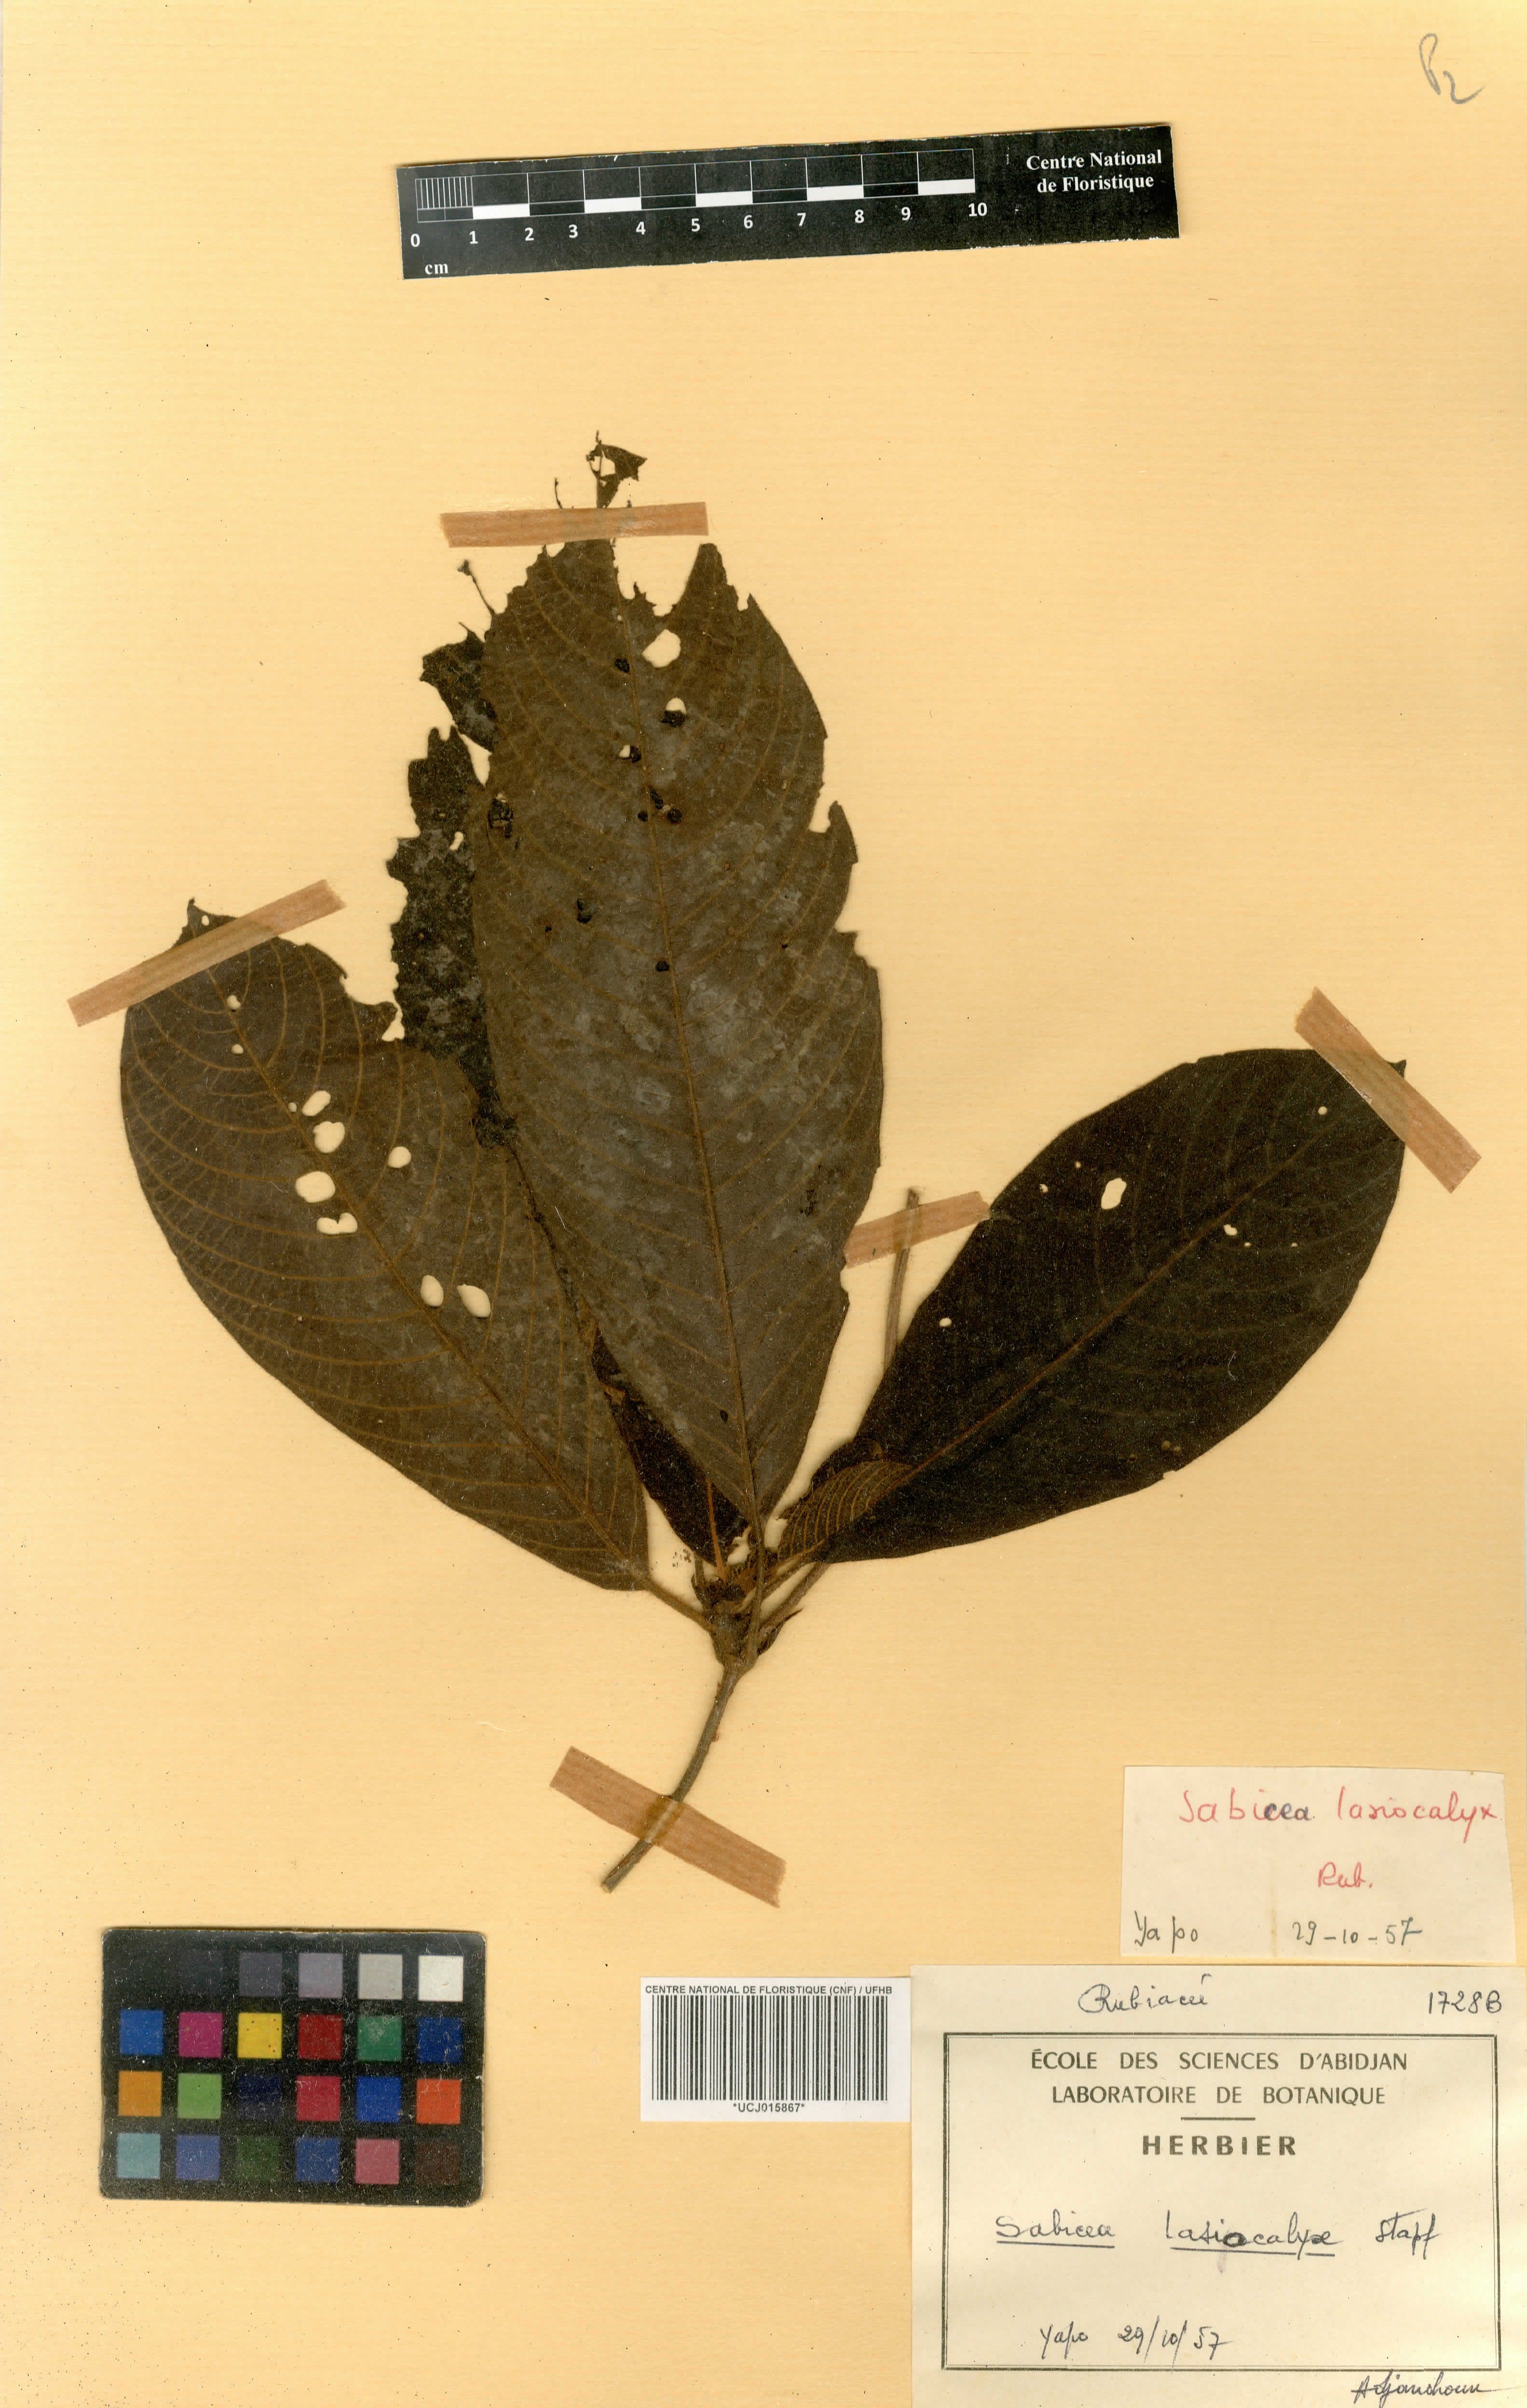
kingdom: Plantae
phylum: Tracheophyta
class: Magnoliopsida
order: Gentianales
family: Rubiaceae
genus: Sabicea
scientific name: Sabicea ferruginea
